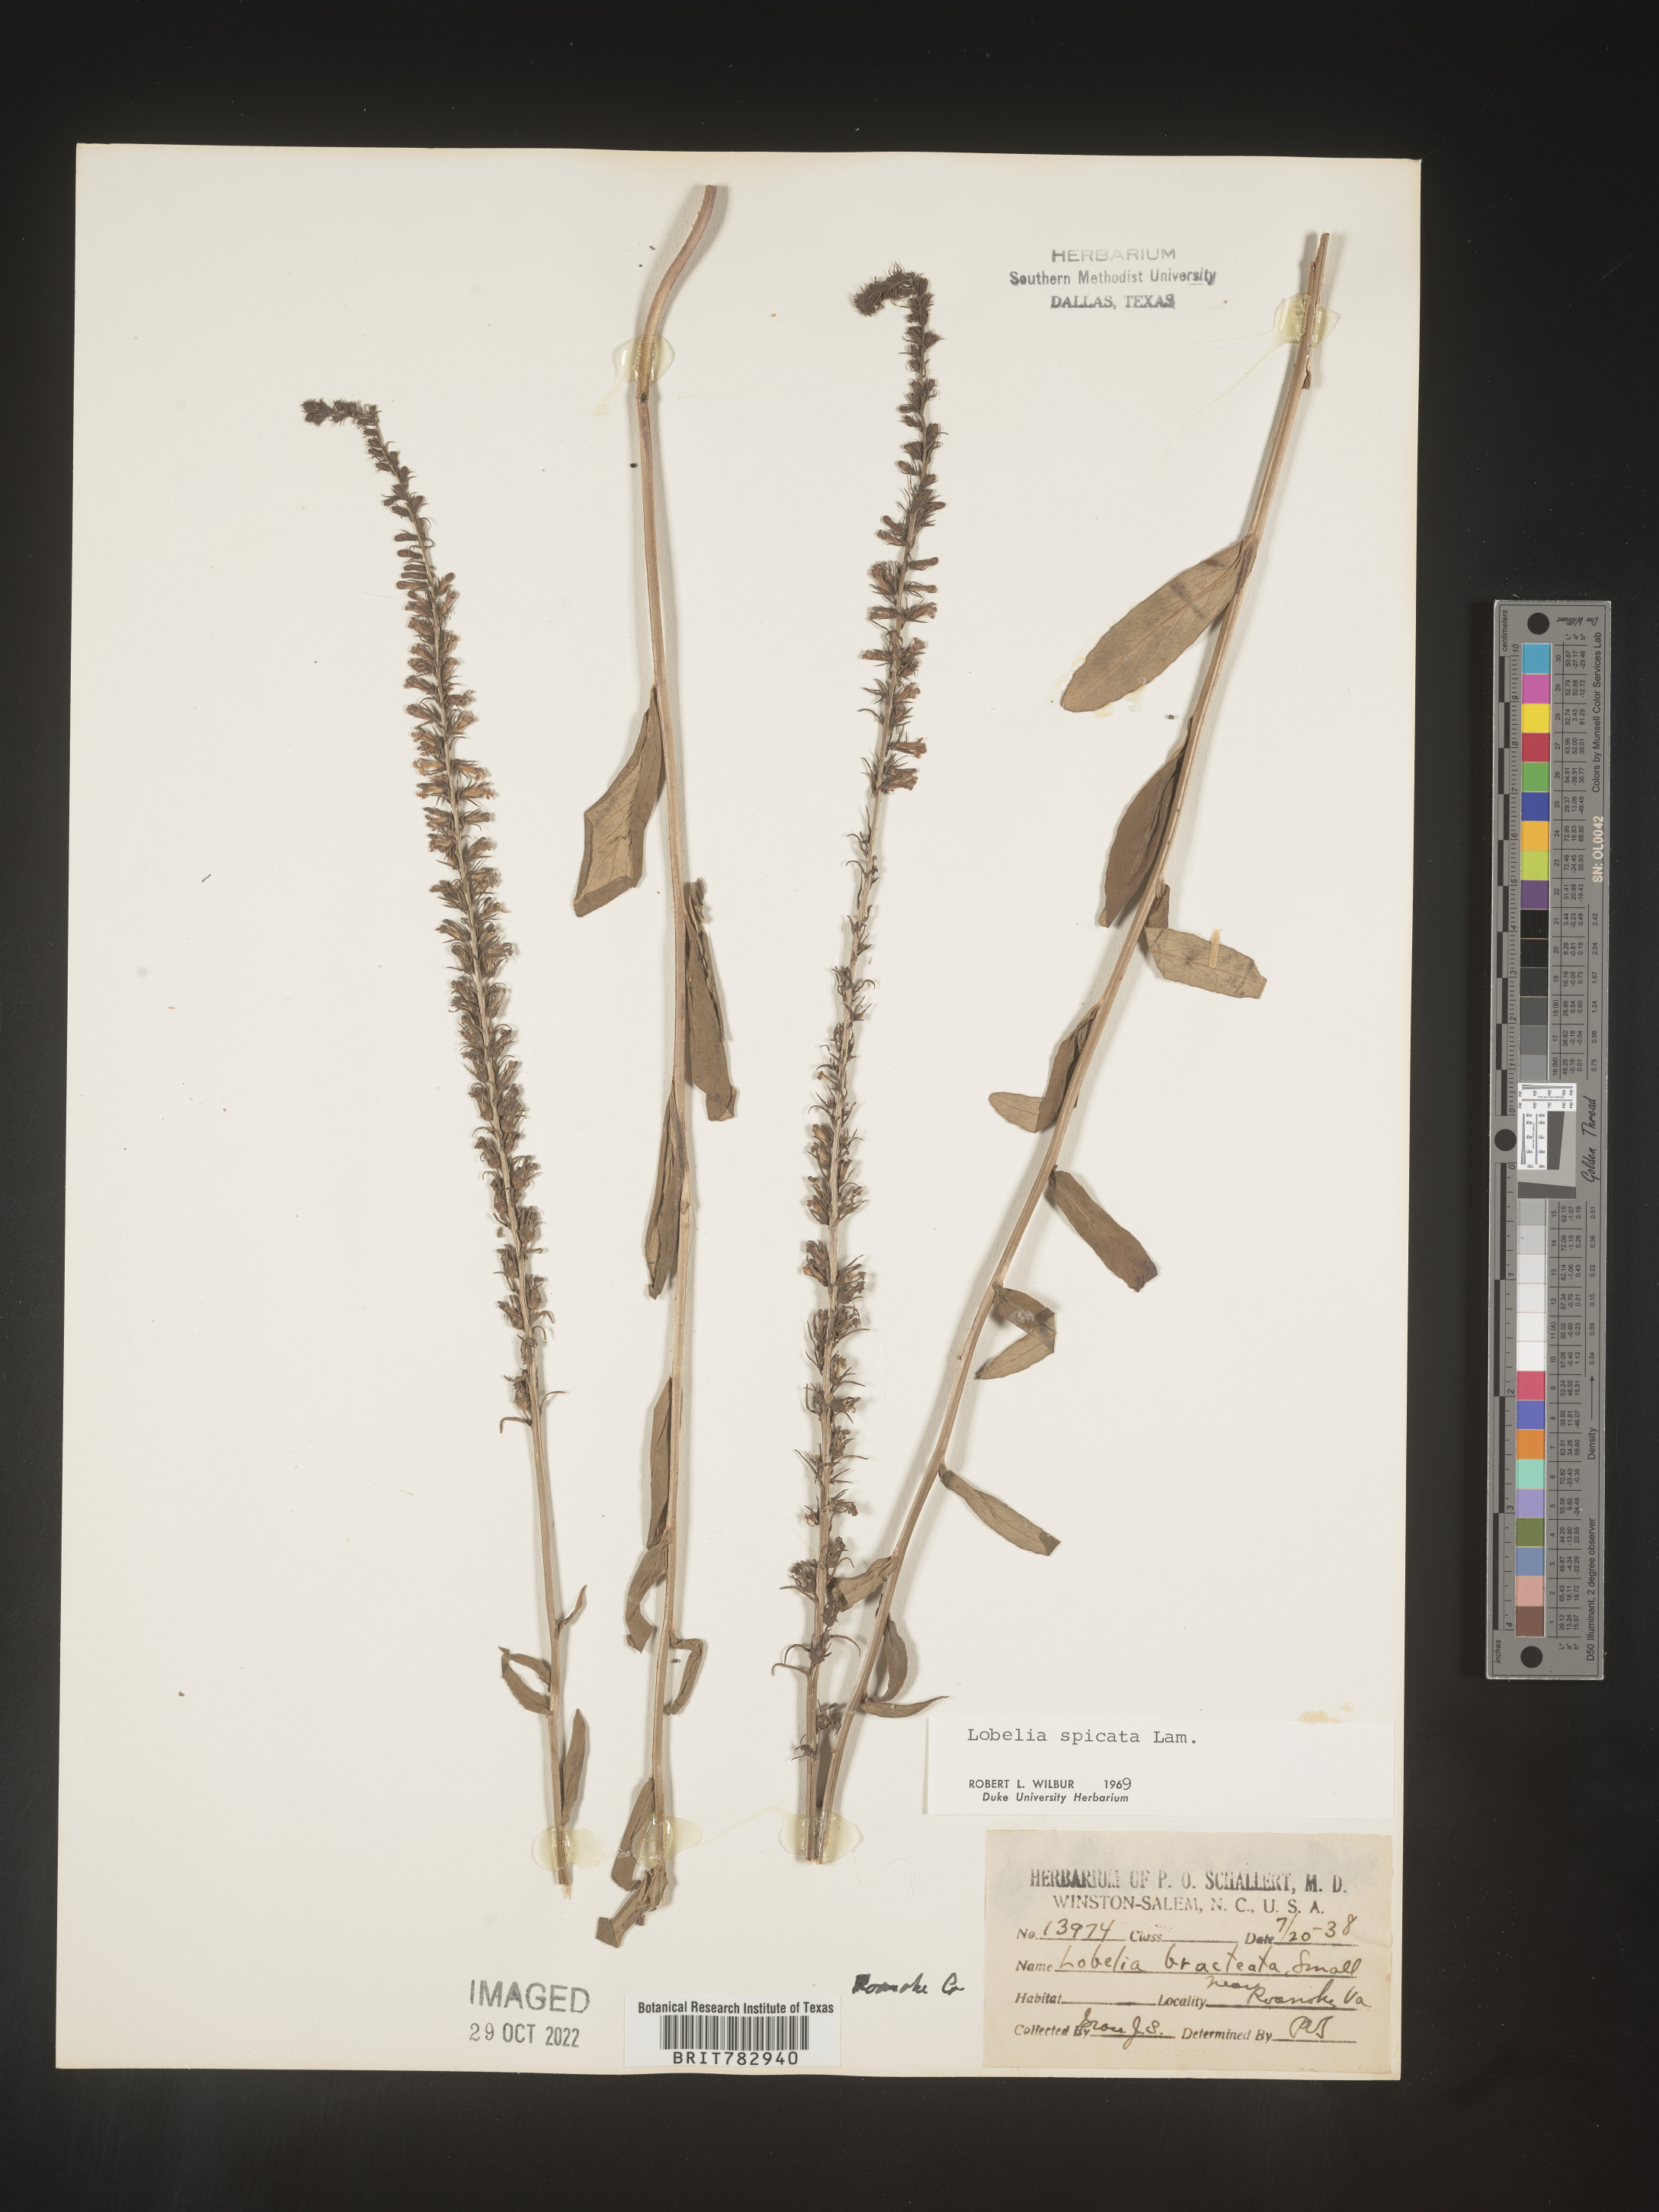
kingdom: Plantae
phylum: Tracheophyta
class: Magnoliopsida
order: Asterales
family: Campanulaceae
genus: Lobelia
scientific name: Lobelia spicata
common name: Pale-spike lobelia
